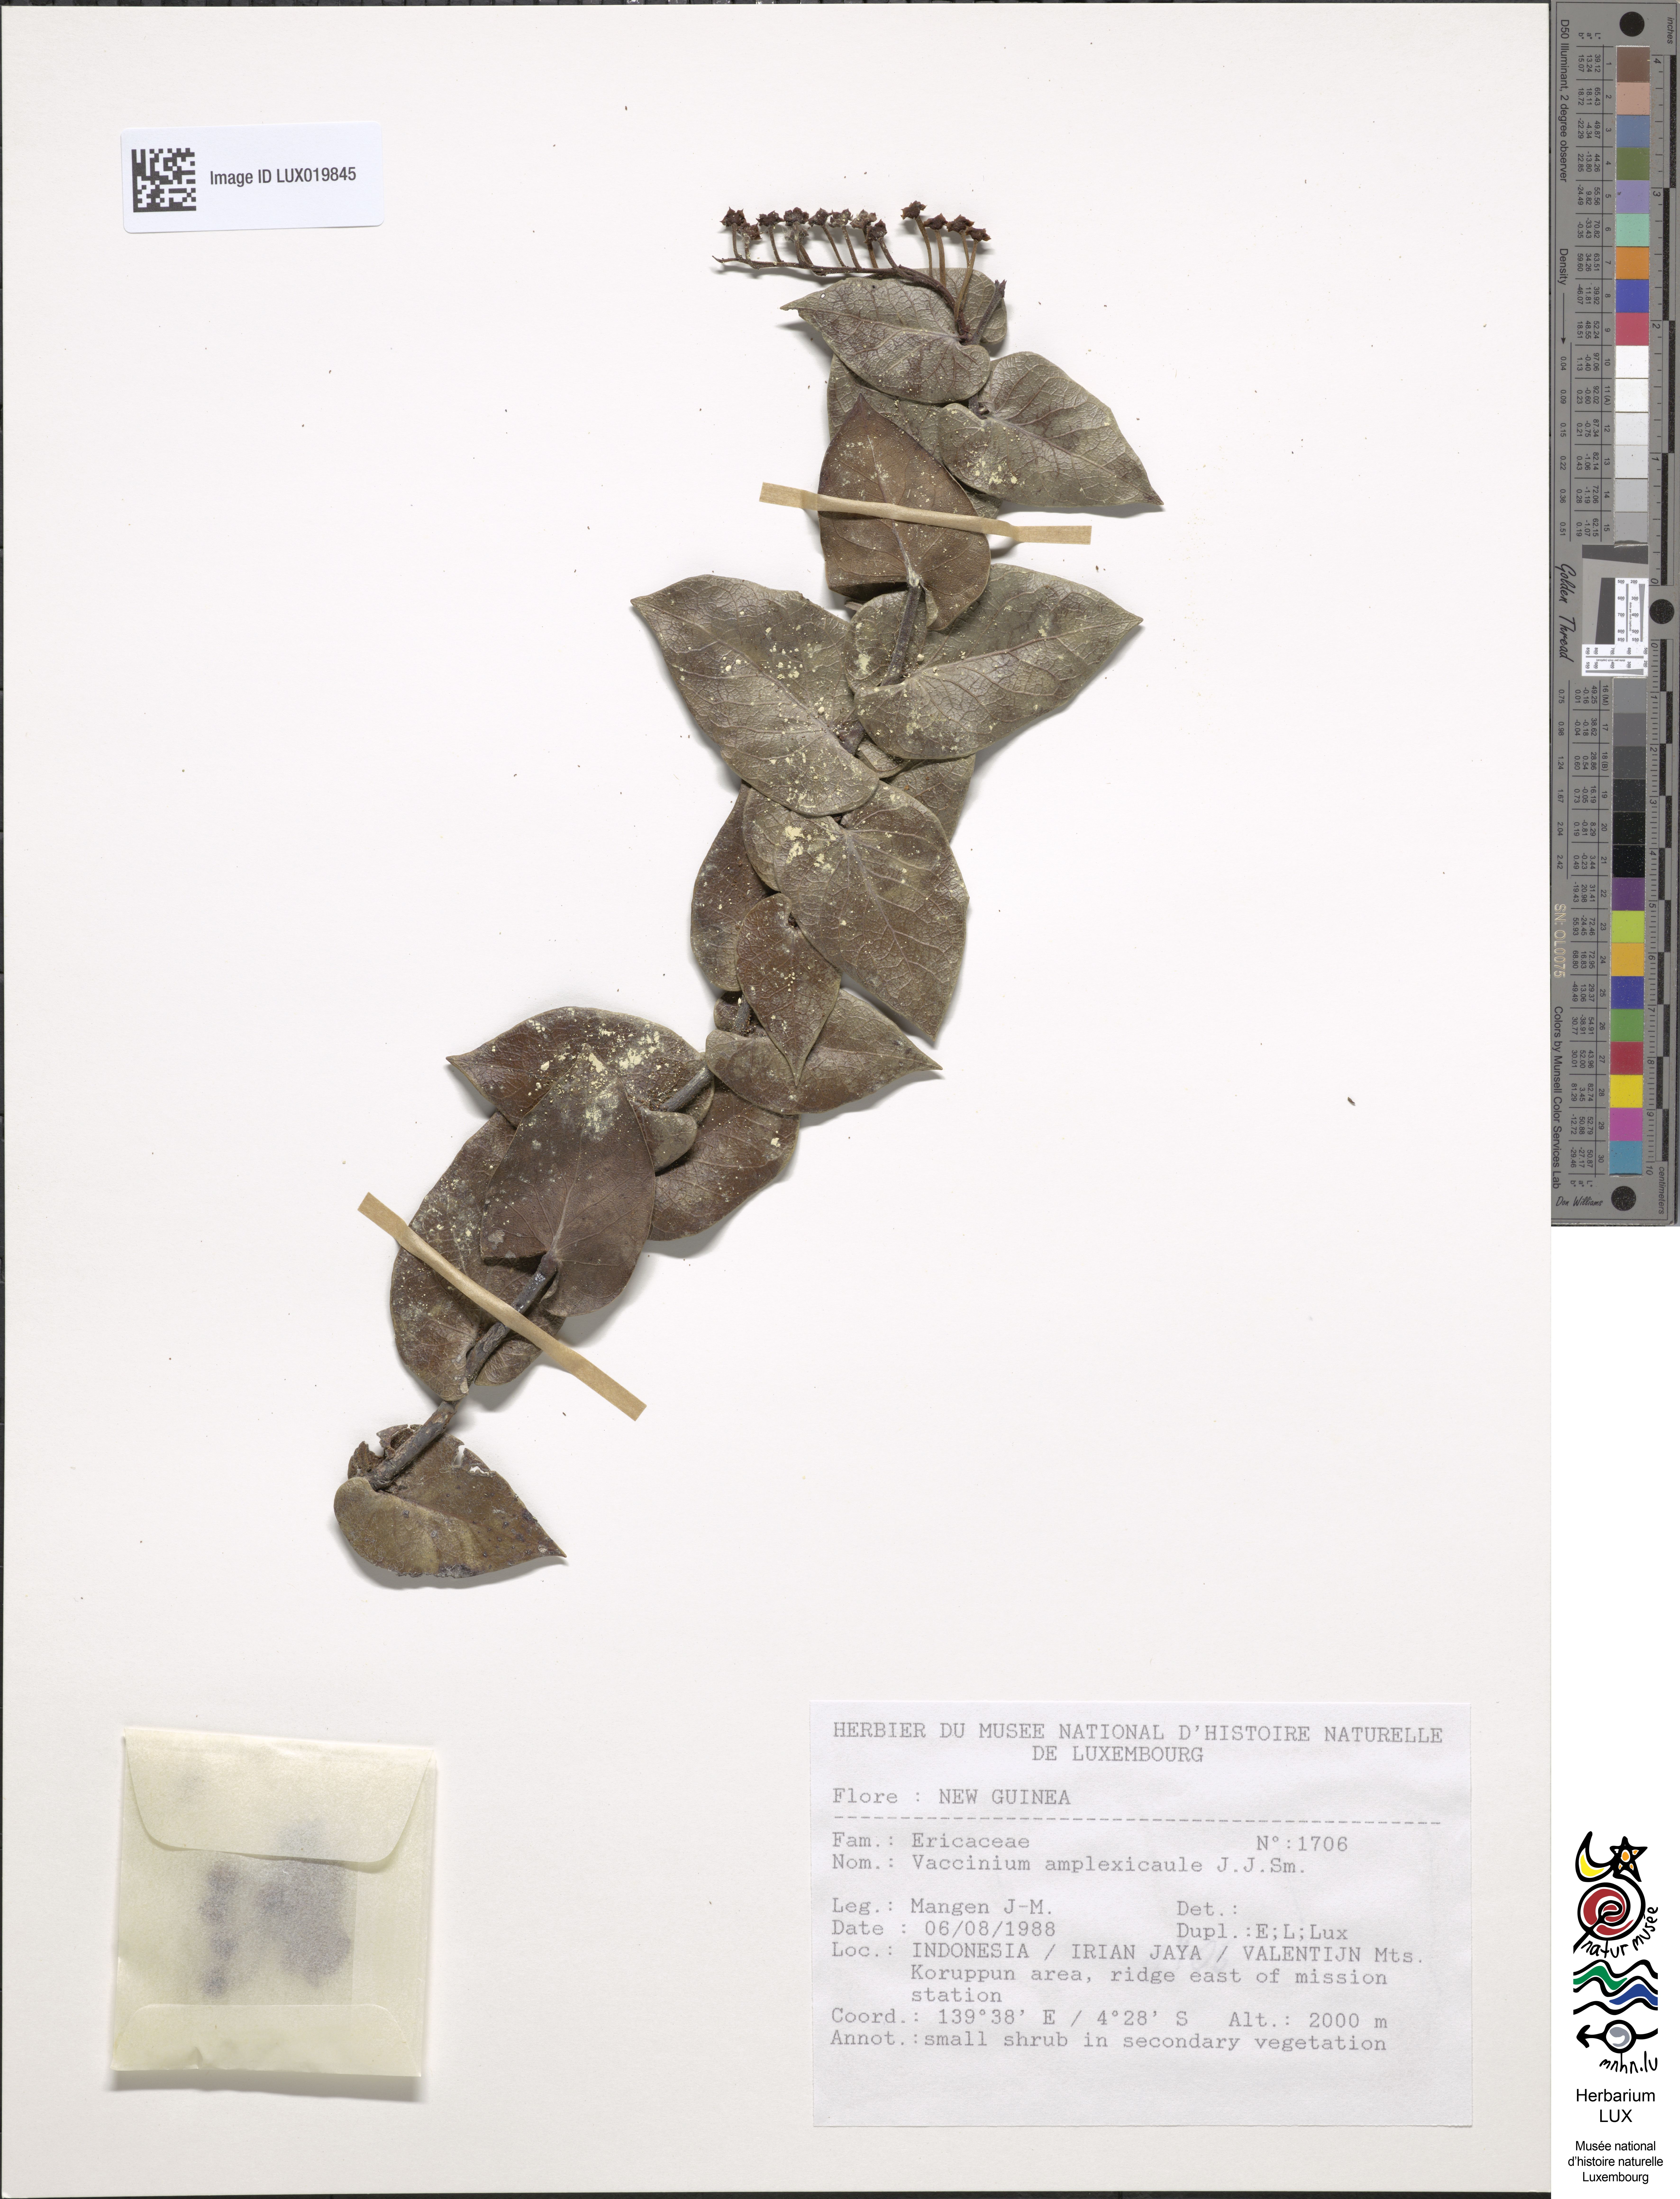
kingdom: Plantae
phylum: Tracheophyta
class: Magnoliopsida
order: Ericales
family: Ericaceae
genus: Vaccinium
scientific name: Vaccinium amplexicaule
